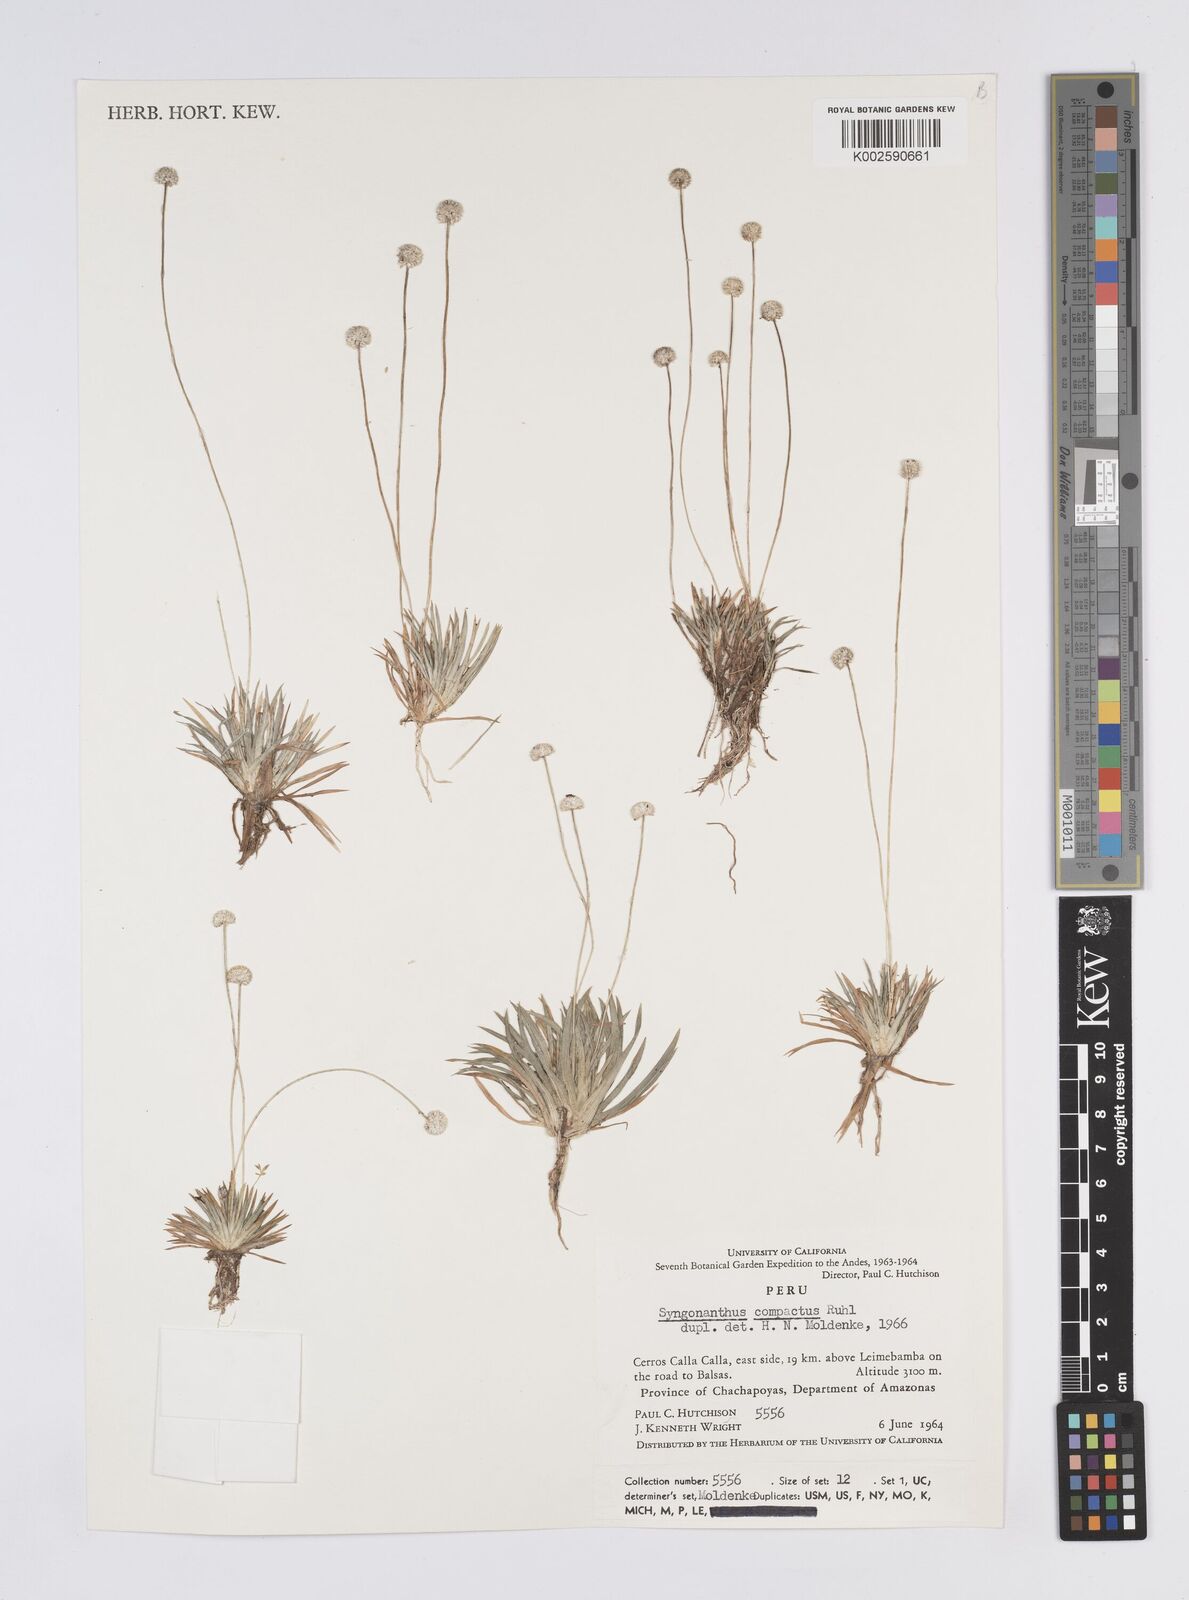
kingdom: Plantae
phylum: Tracheophyta
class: Liliopsida
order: Poales
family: Eriocaulaceae
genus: Syngonanthus
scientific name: Syngonanthus
